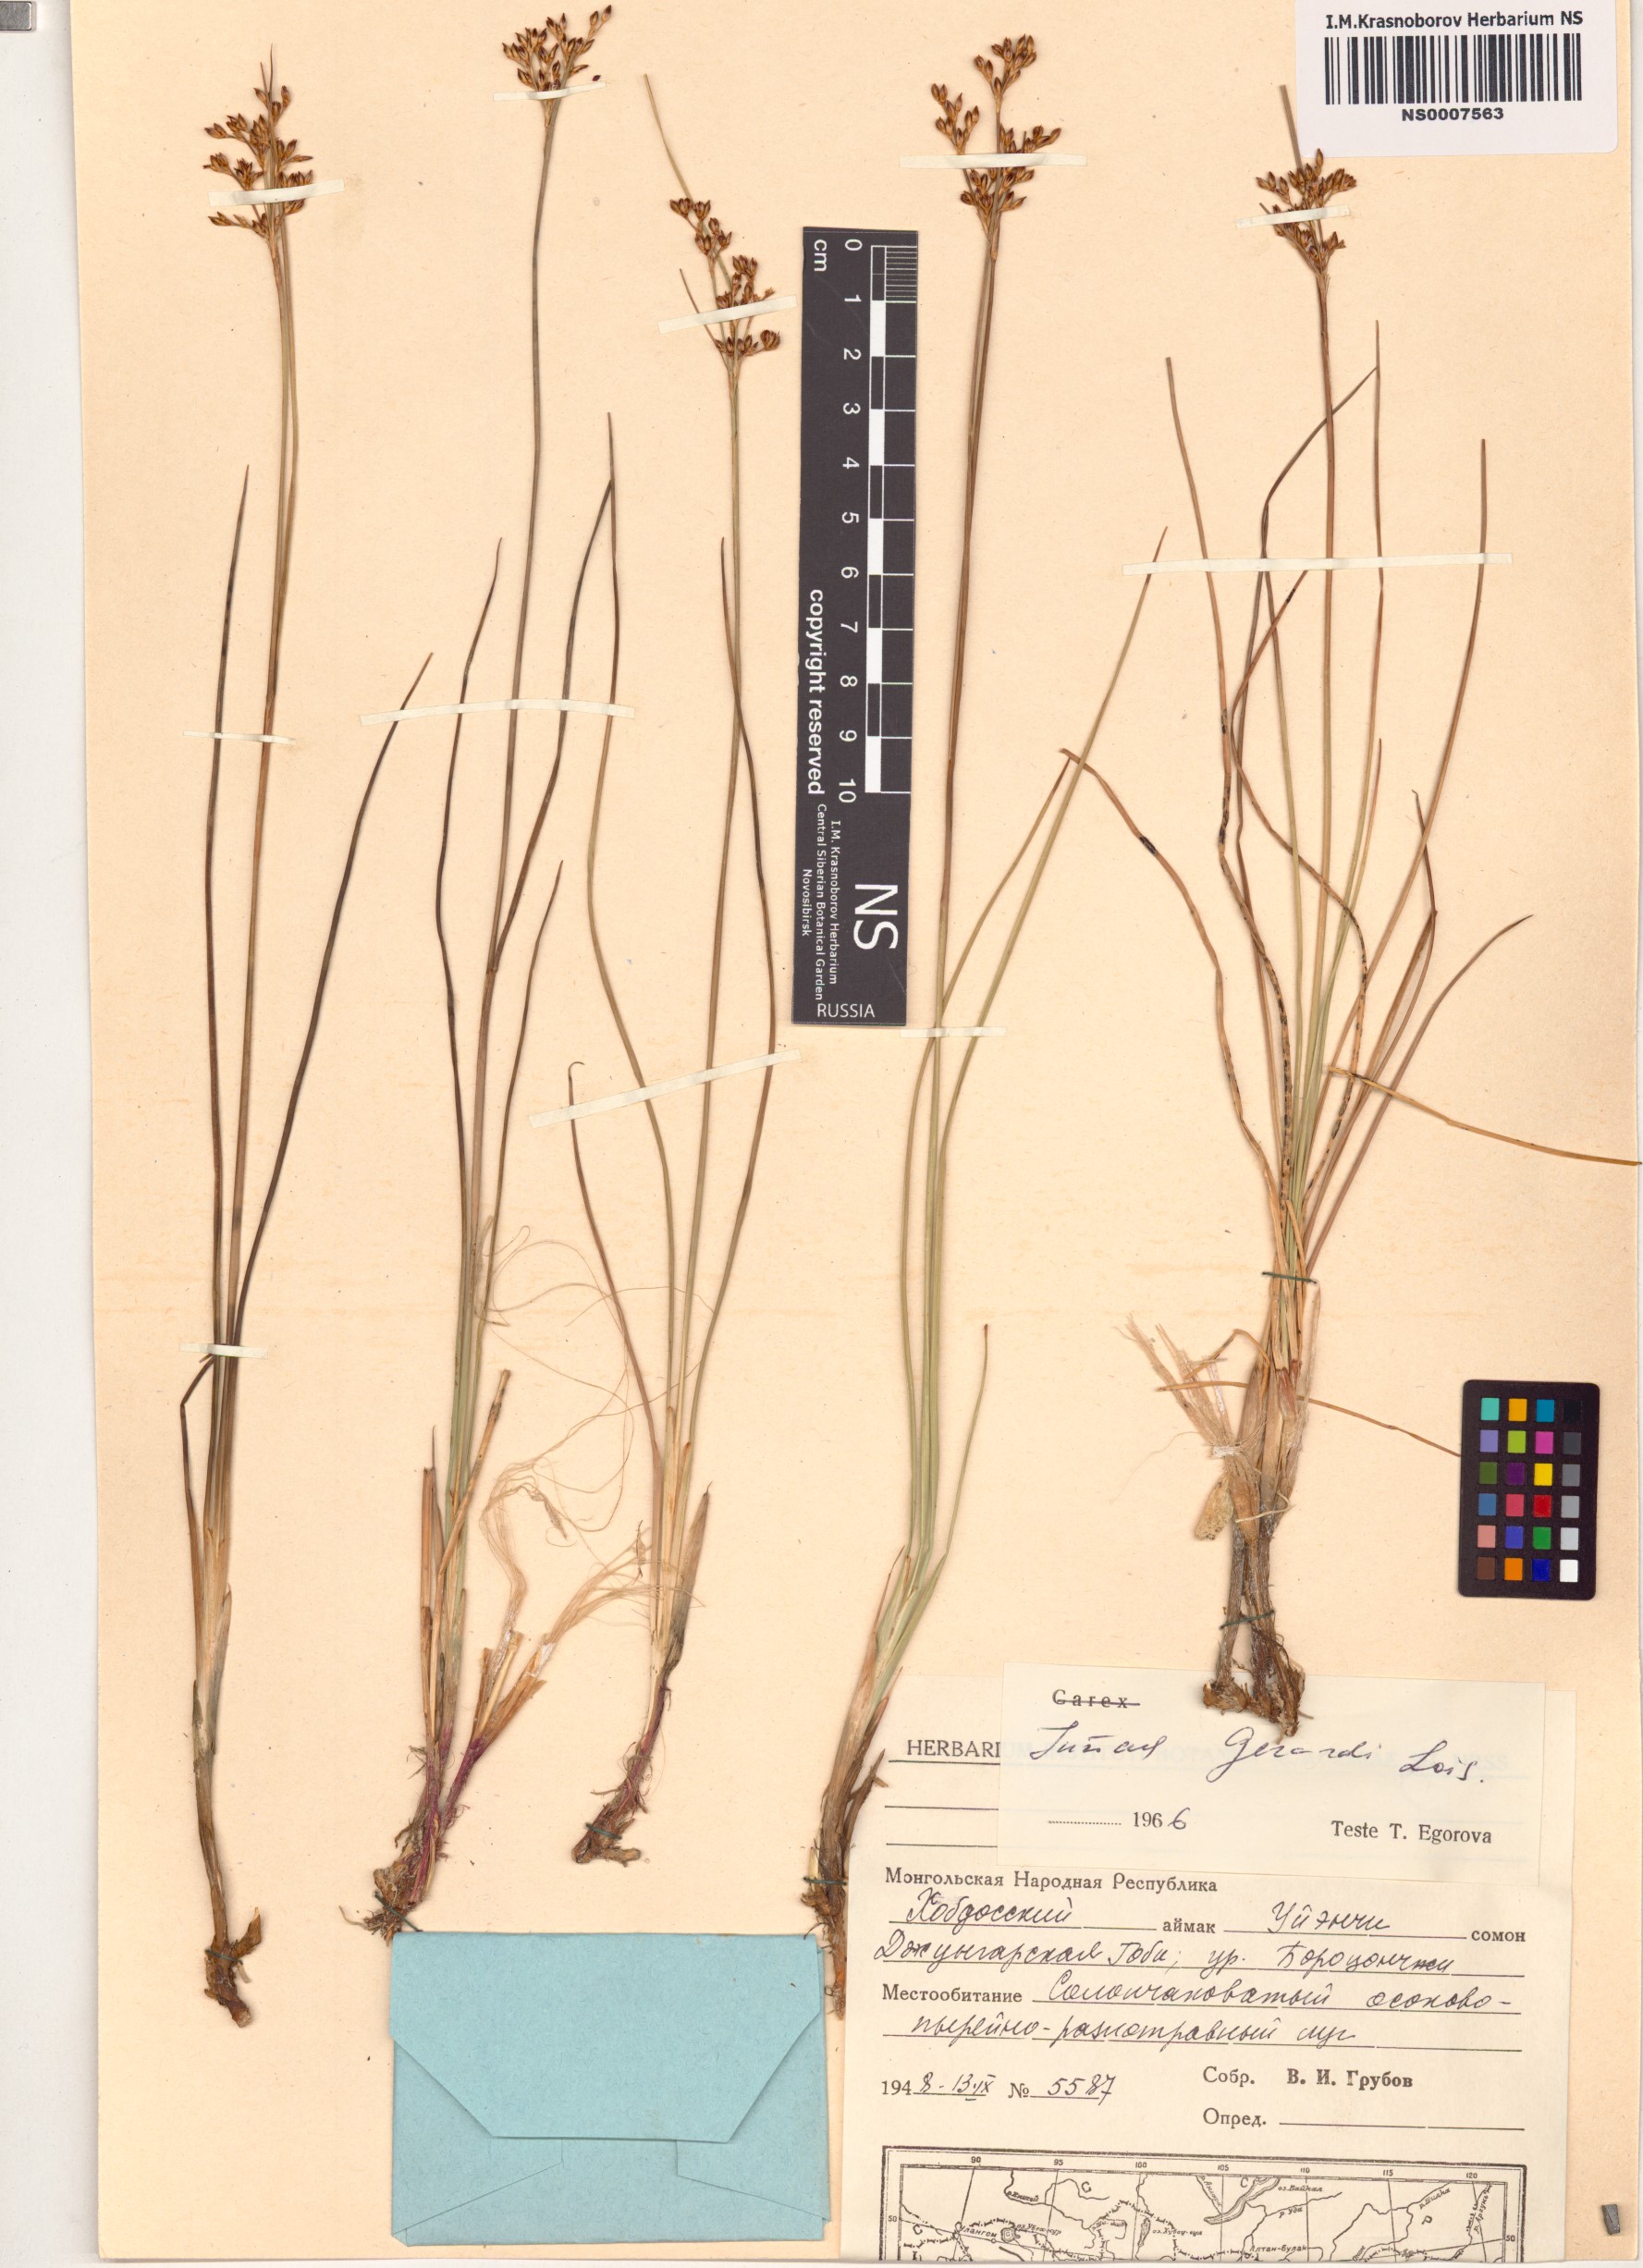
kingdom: Plantae
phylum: Tracheophyta
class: Liliopsida
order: Poales
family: Juncaceae
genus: Juncus
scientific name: Juncus gerardi
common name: Saltmarsh rush
